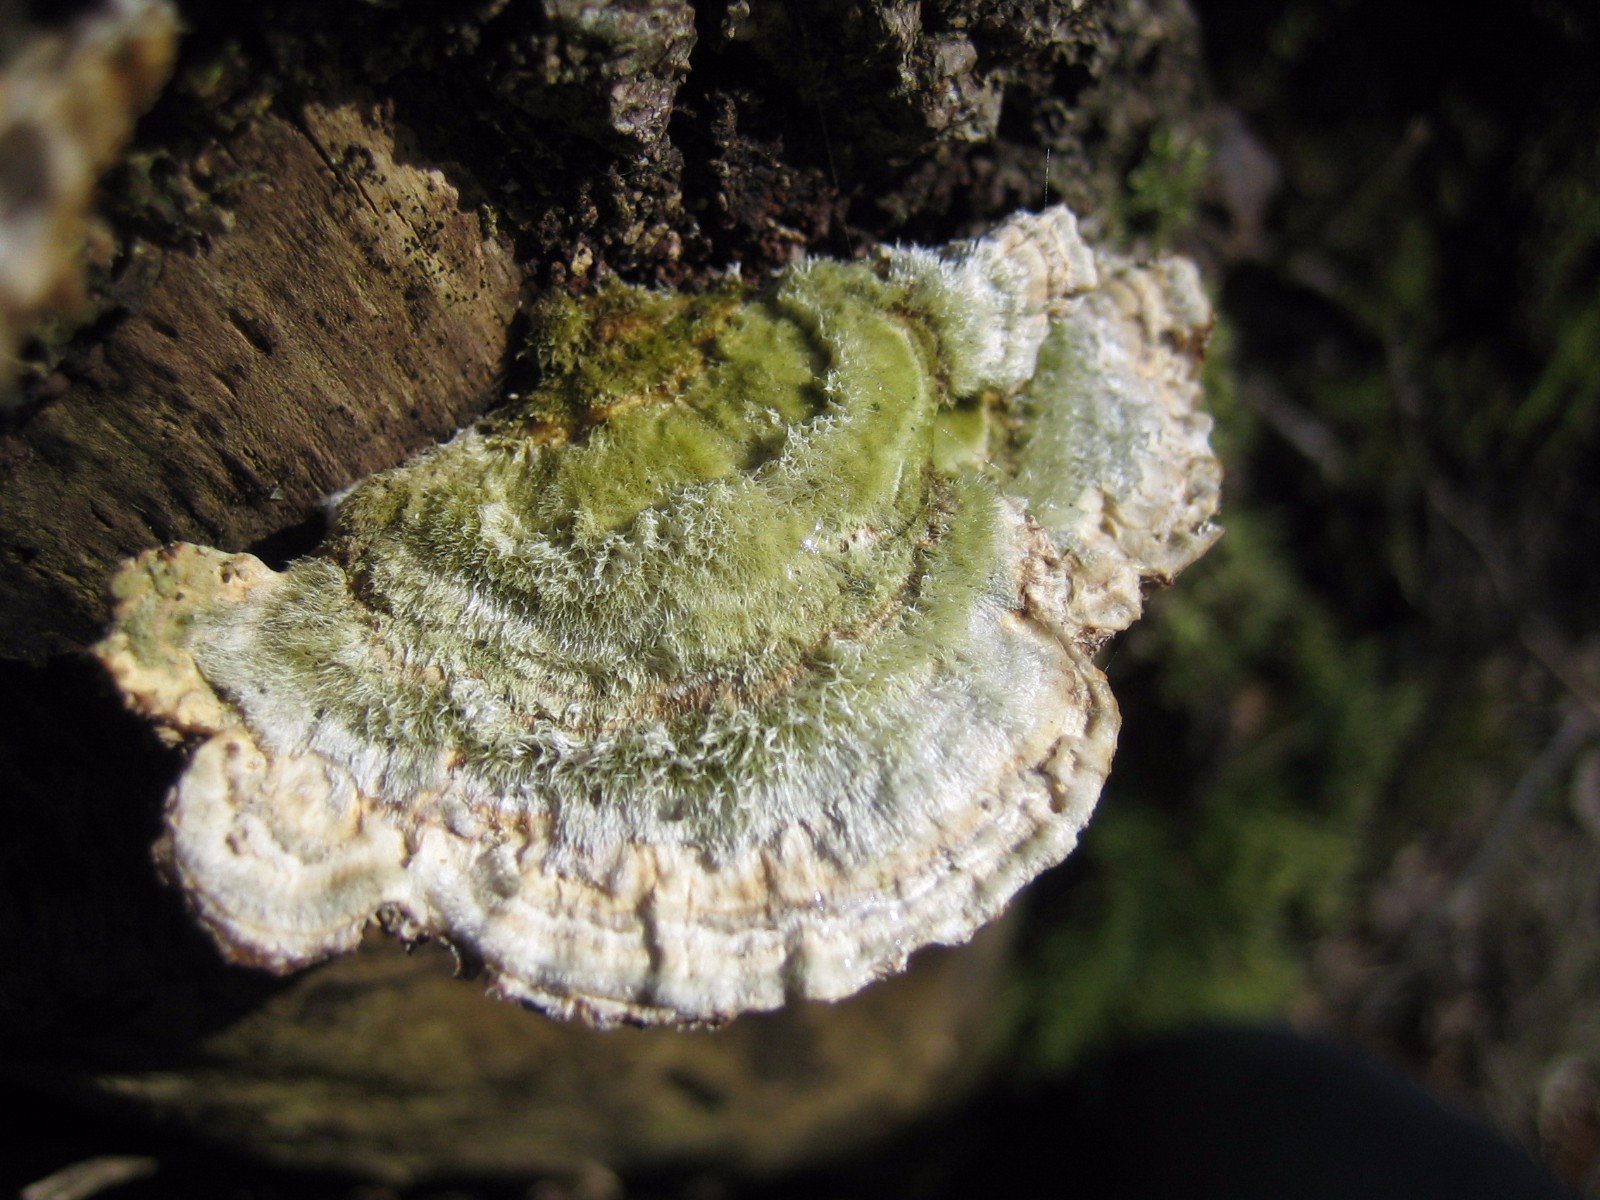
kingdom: Fungi
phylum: Basidiomycota
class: Agaricomycetes
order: Polyporales
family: Polyporaceae
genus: Lenzites
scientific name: Lenzites betulinus
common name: birke-læderporesvamp
